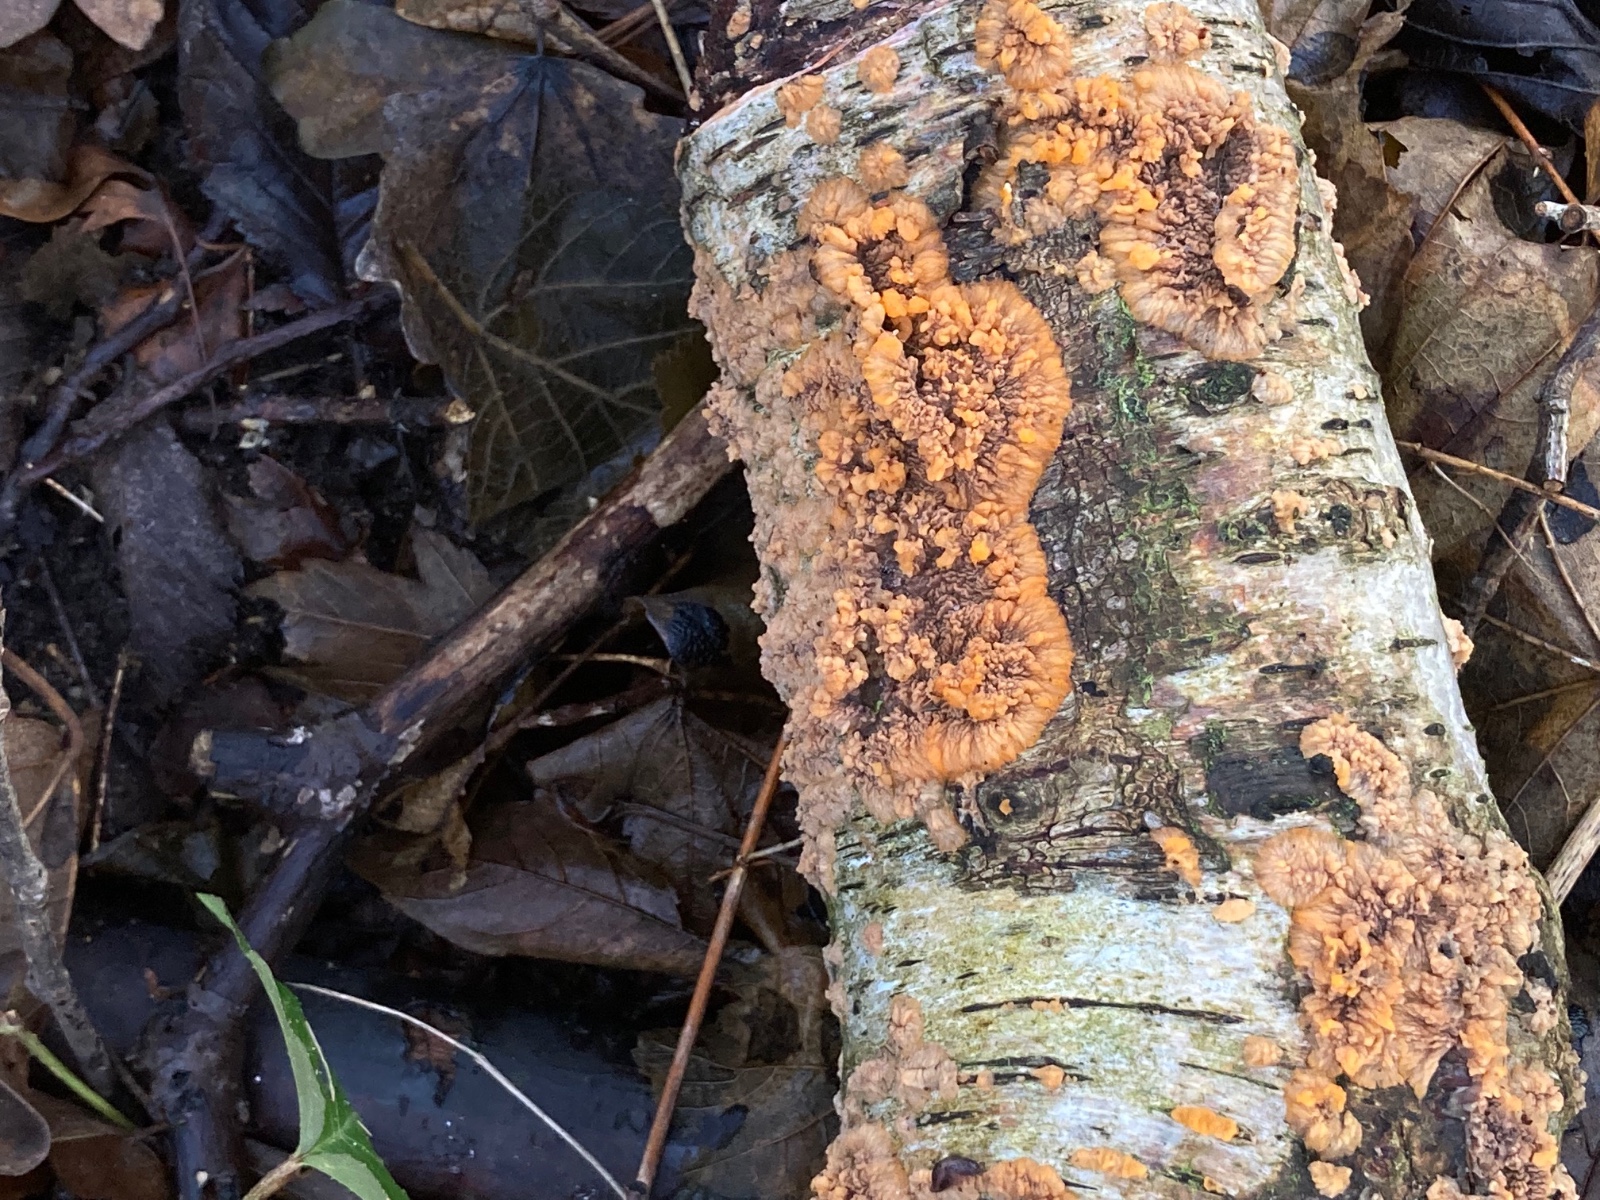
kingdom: Fungi
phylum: Basidiomycota
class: Agaricomycetes
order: Polyporales
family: Meruliaceae
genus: Phlebia
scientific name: Phlebia radiata
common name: stråle-åresvamp
